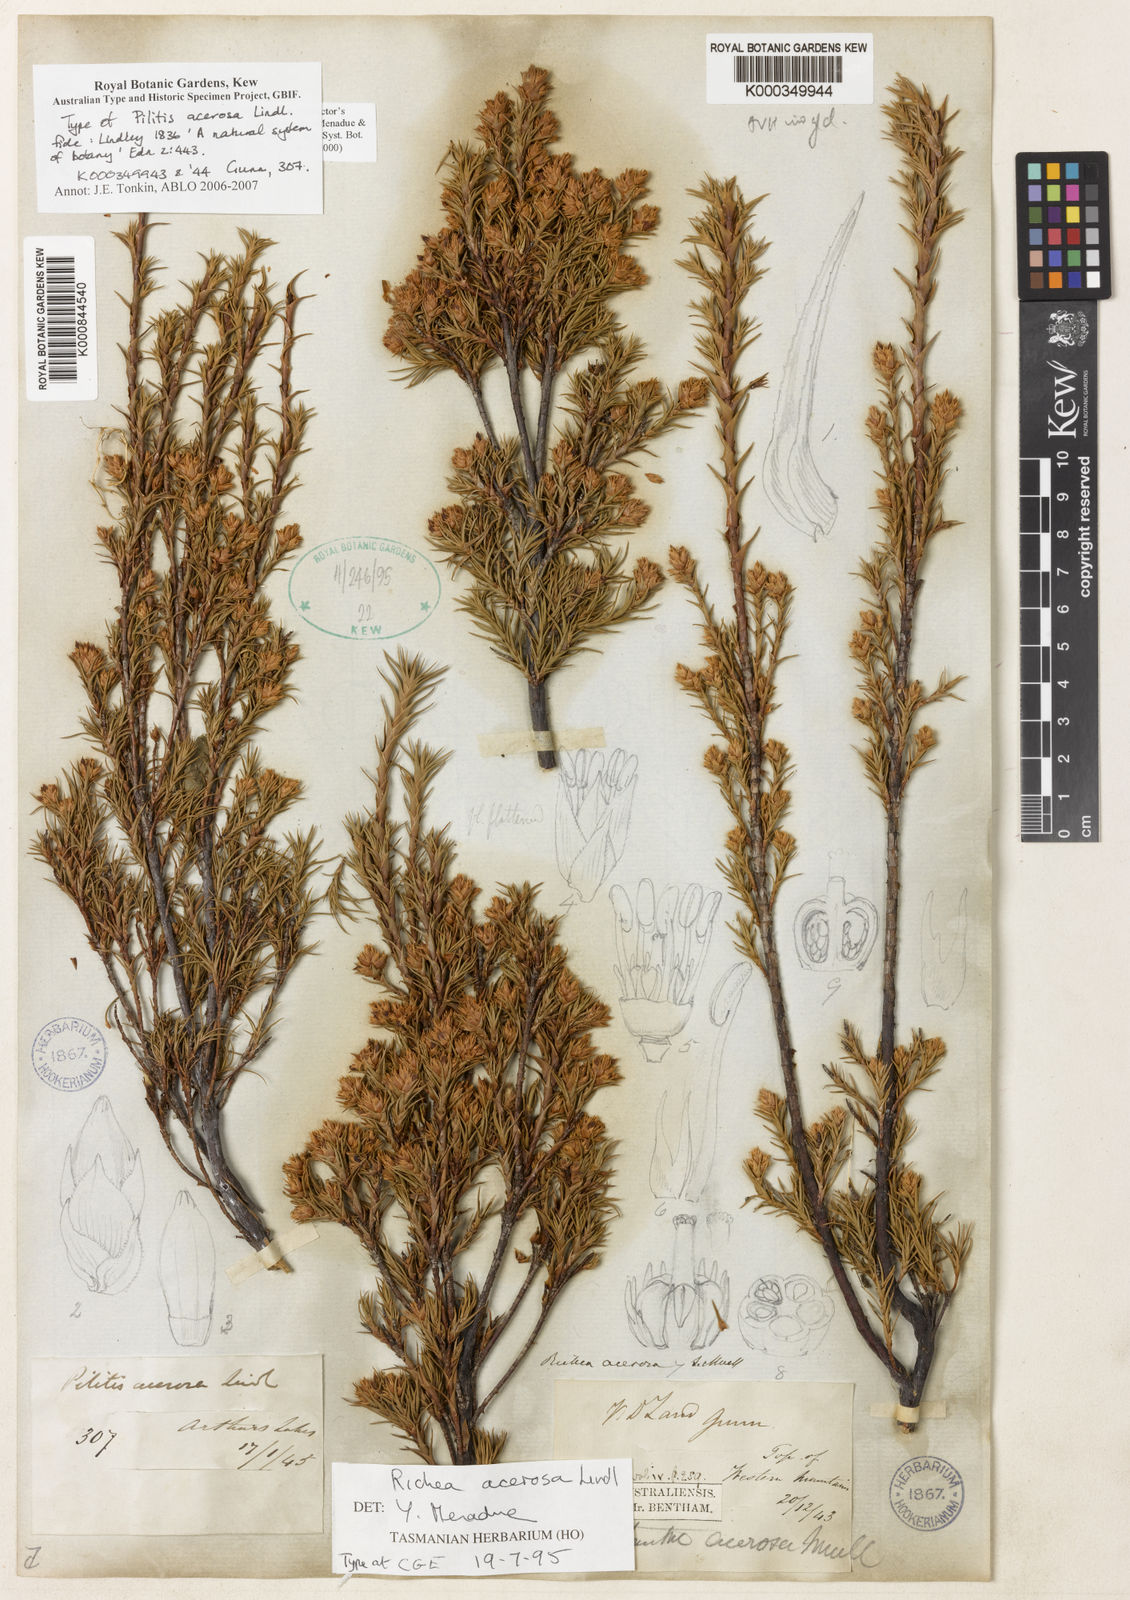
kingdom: Plantae
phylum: Tracheophyta
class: Magnoliopsida
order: Ericales
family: Ericaceae
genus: Dracophyllum
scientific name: Dracophyllum laciniatum
